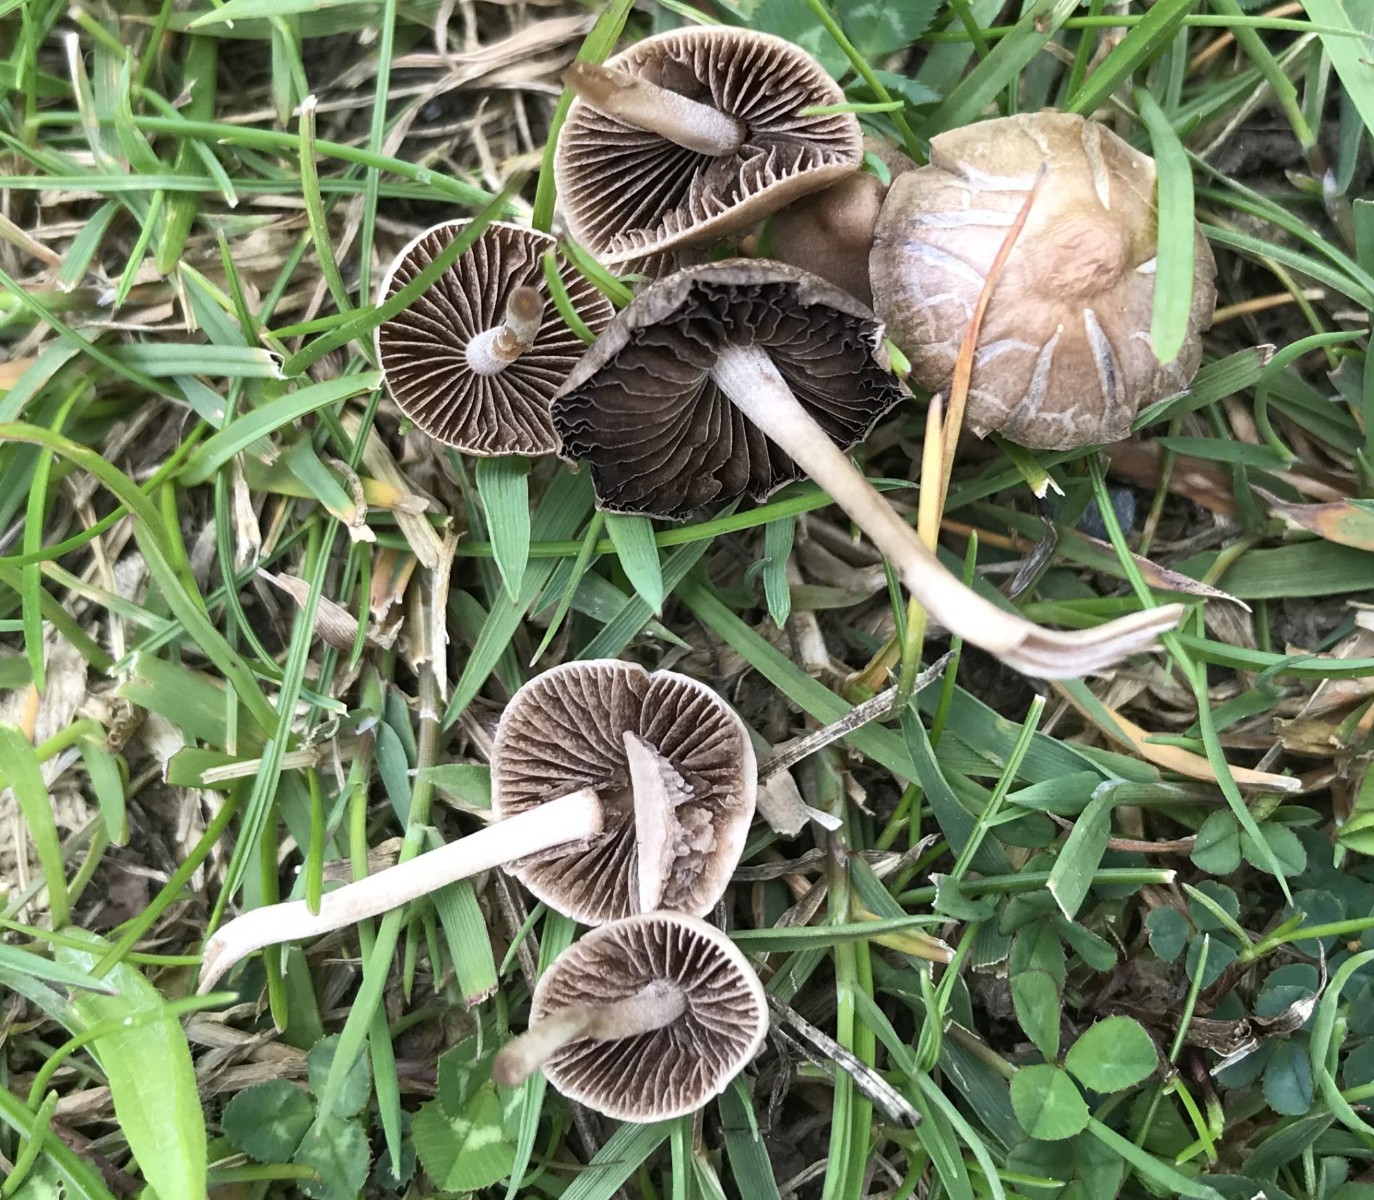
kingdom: Fungi
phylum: Basidiomycota
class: Agaricomycetes
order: Agaricales
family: Bolbitiaceae
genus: Panaeolina
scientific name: Panaeolina foenisecii
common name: høslætsvamp
